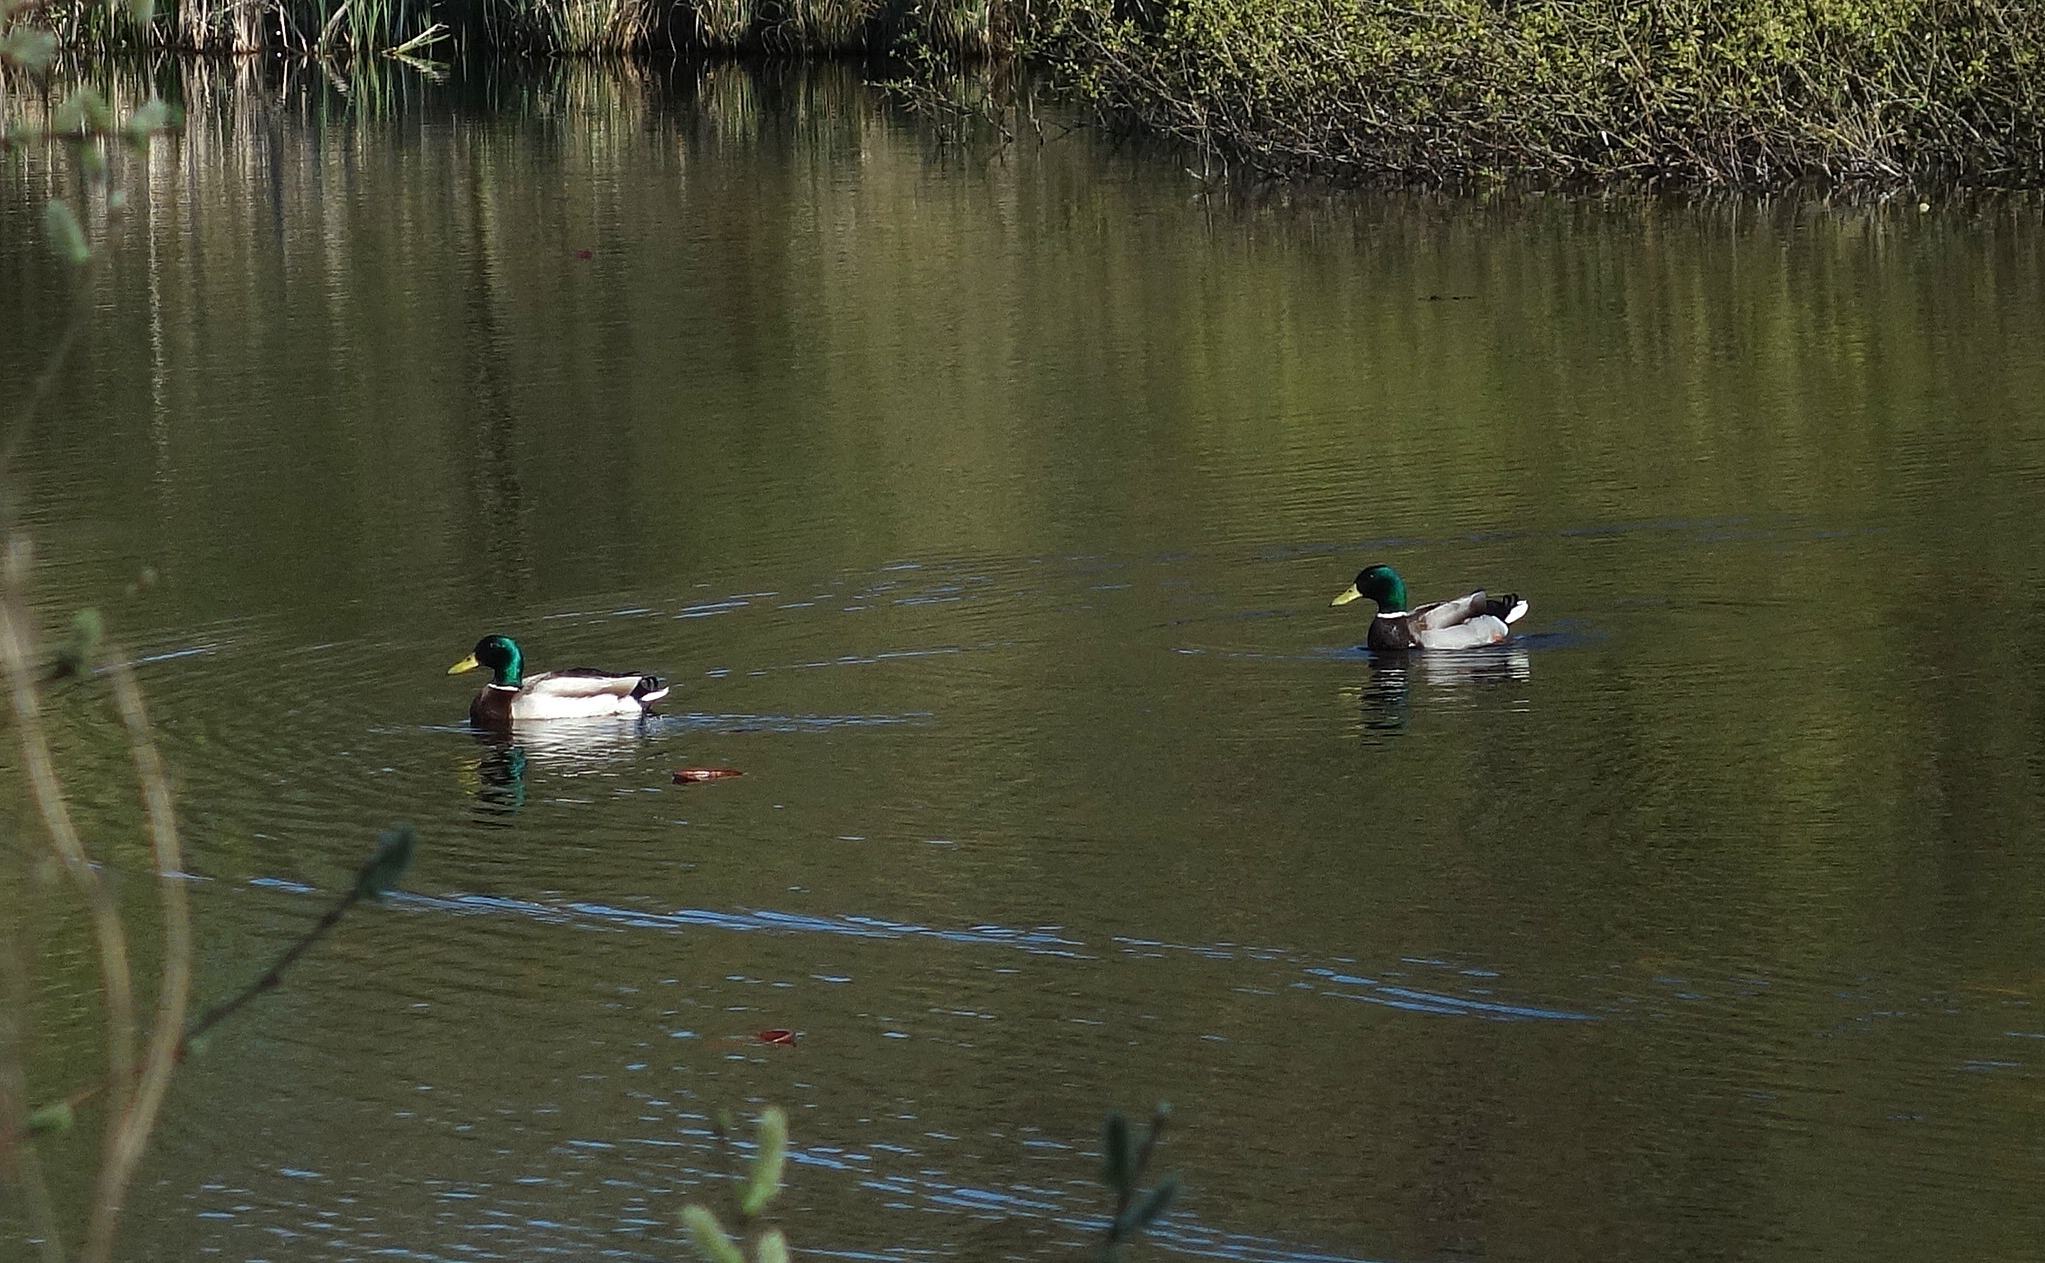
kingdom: Animalia
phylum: Chordata
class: Aves
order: Anseriformes
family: Anatidae
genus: Anas
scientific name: Anas platyrhynchos
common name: Gråand
